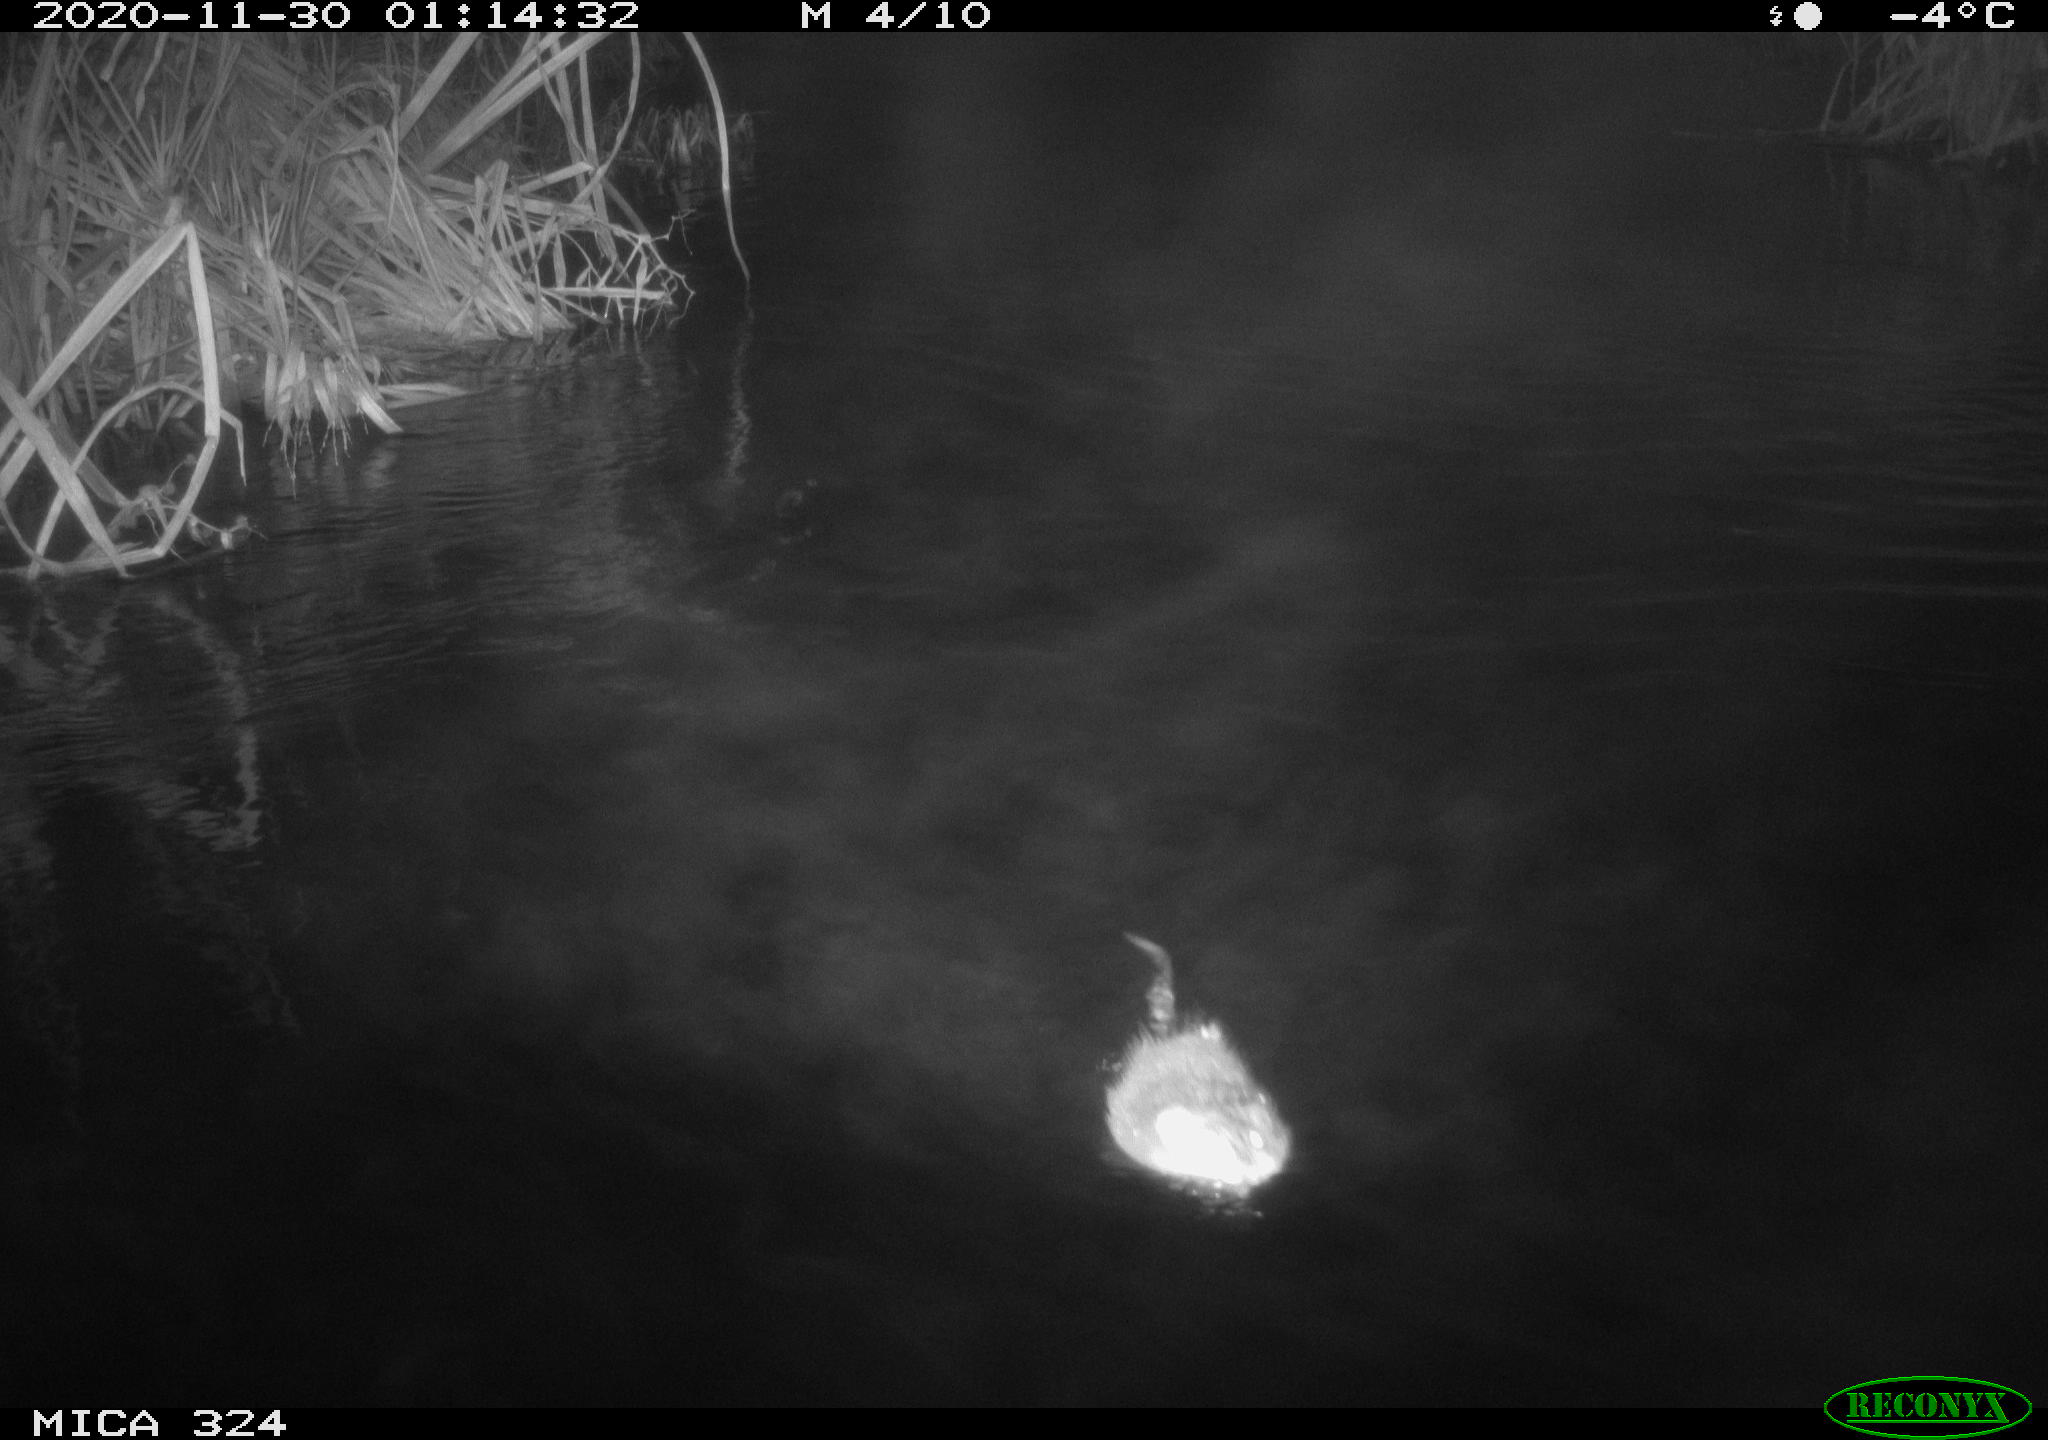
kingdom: Animalia
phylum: Chordata
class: Mammalia
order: Rodentia
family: Cricetidae
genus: Ondatra
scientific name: Ondatra zibethicus
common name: Muskrat
